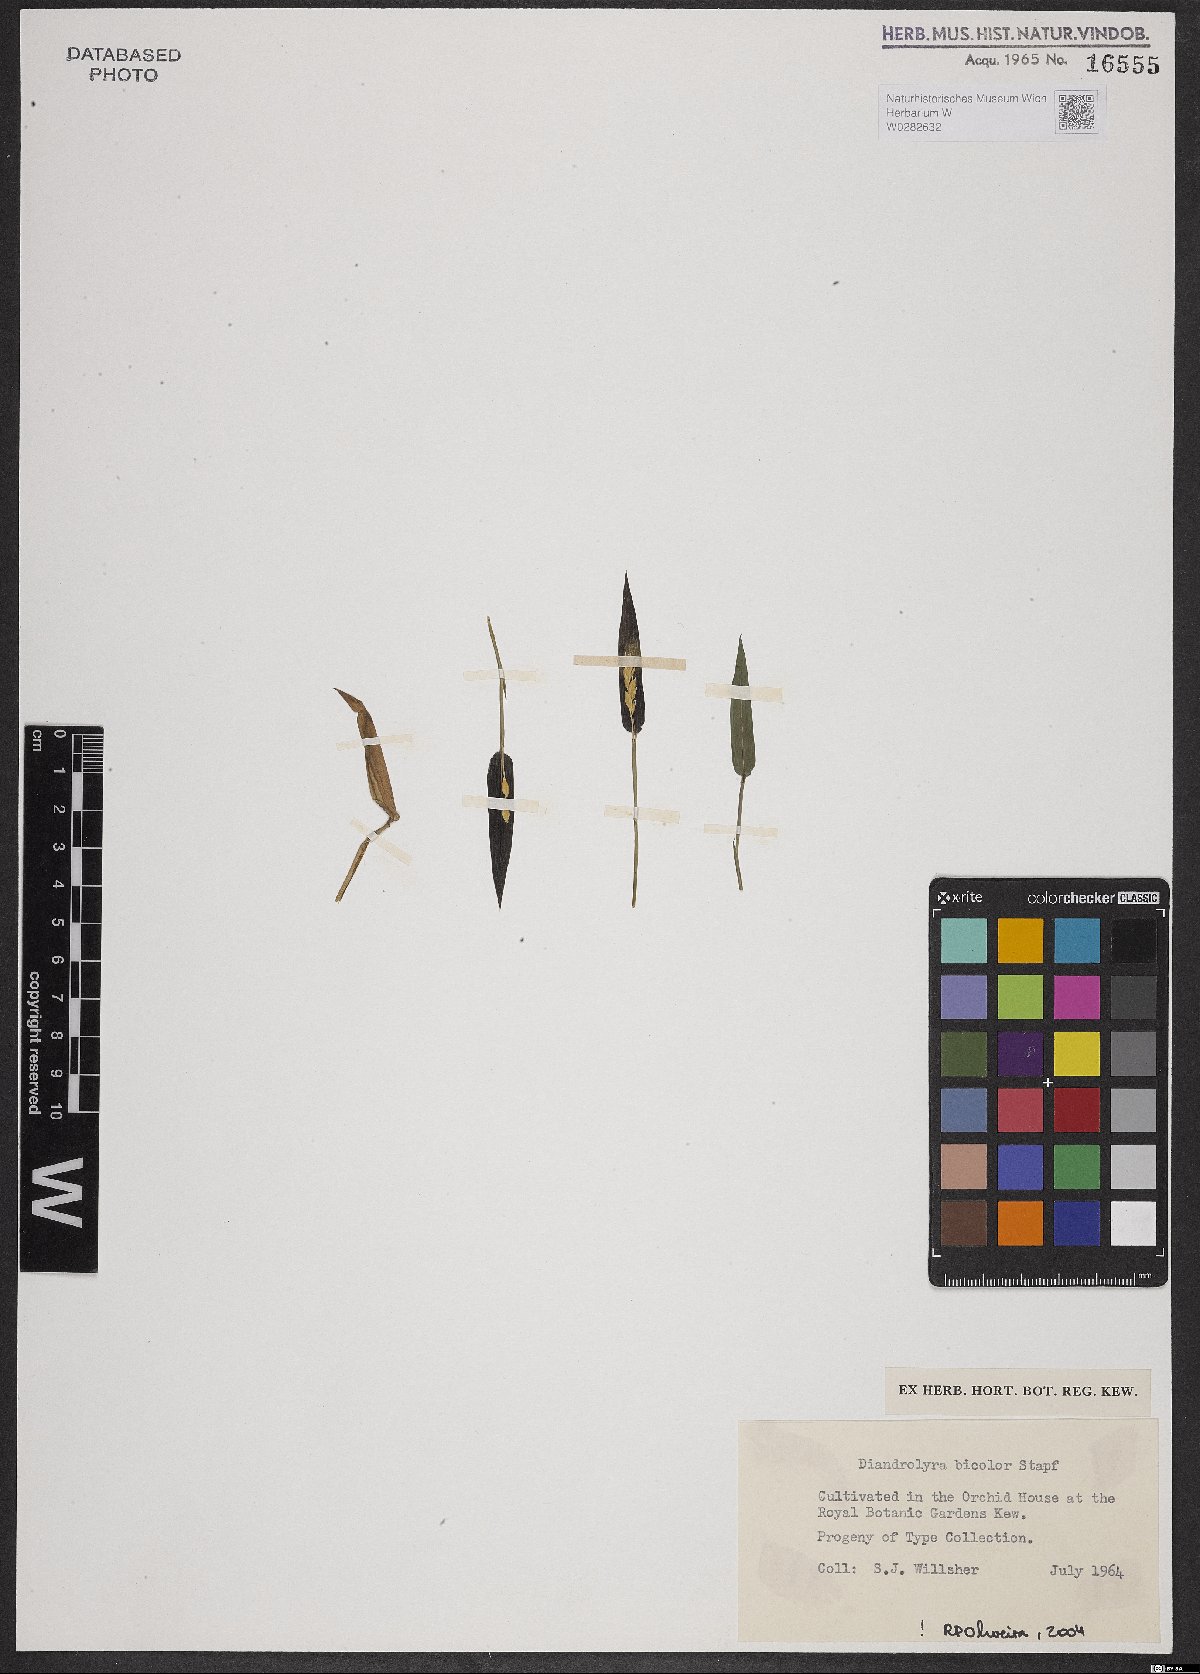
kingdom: Plantae
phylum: Tracheophyta
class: Liliopsida
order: Poales
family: Poaceae
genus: Diandrolyra
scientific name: Diandrolyra bicolor
